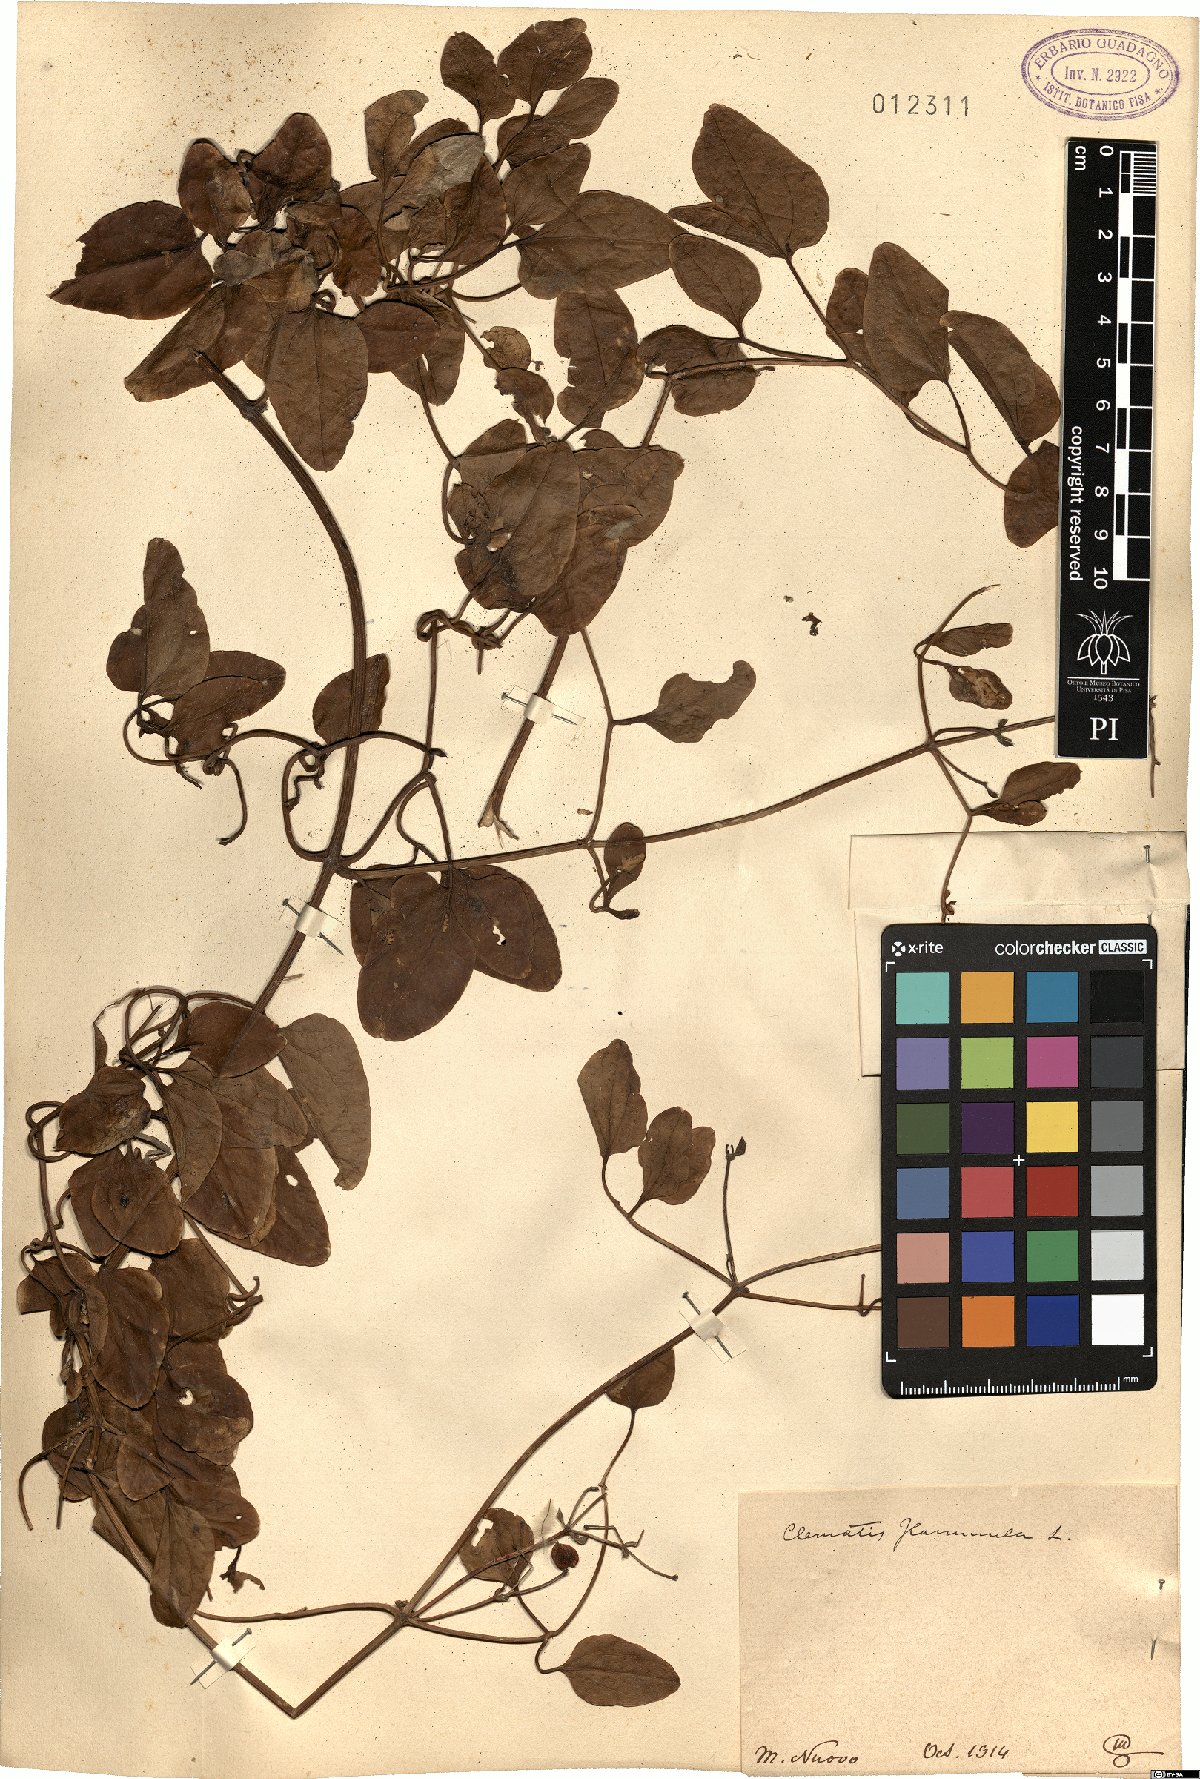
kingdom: Plantae
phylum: Tracheophyta
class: Magnoliopsida
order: Ranunculales
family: Ranunculaceae
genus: Clematis
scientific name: Clematis flammula
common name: Virgin's-bower
